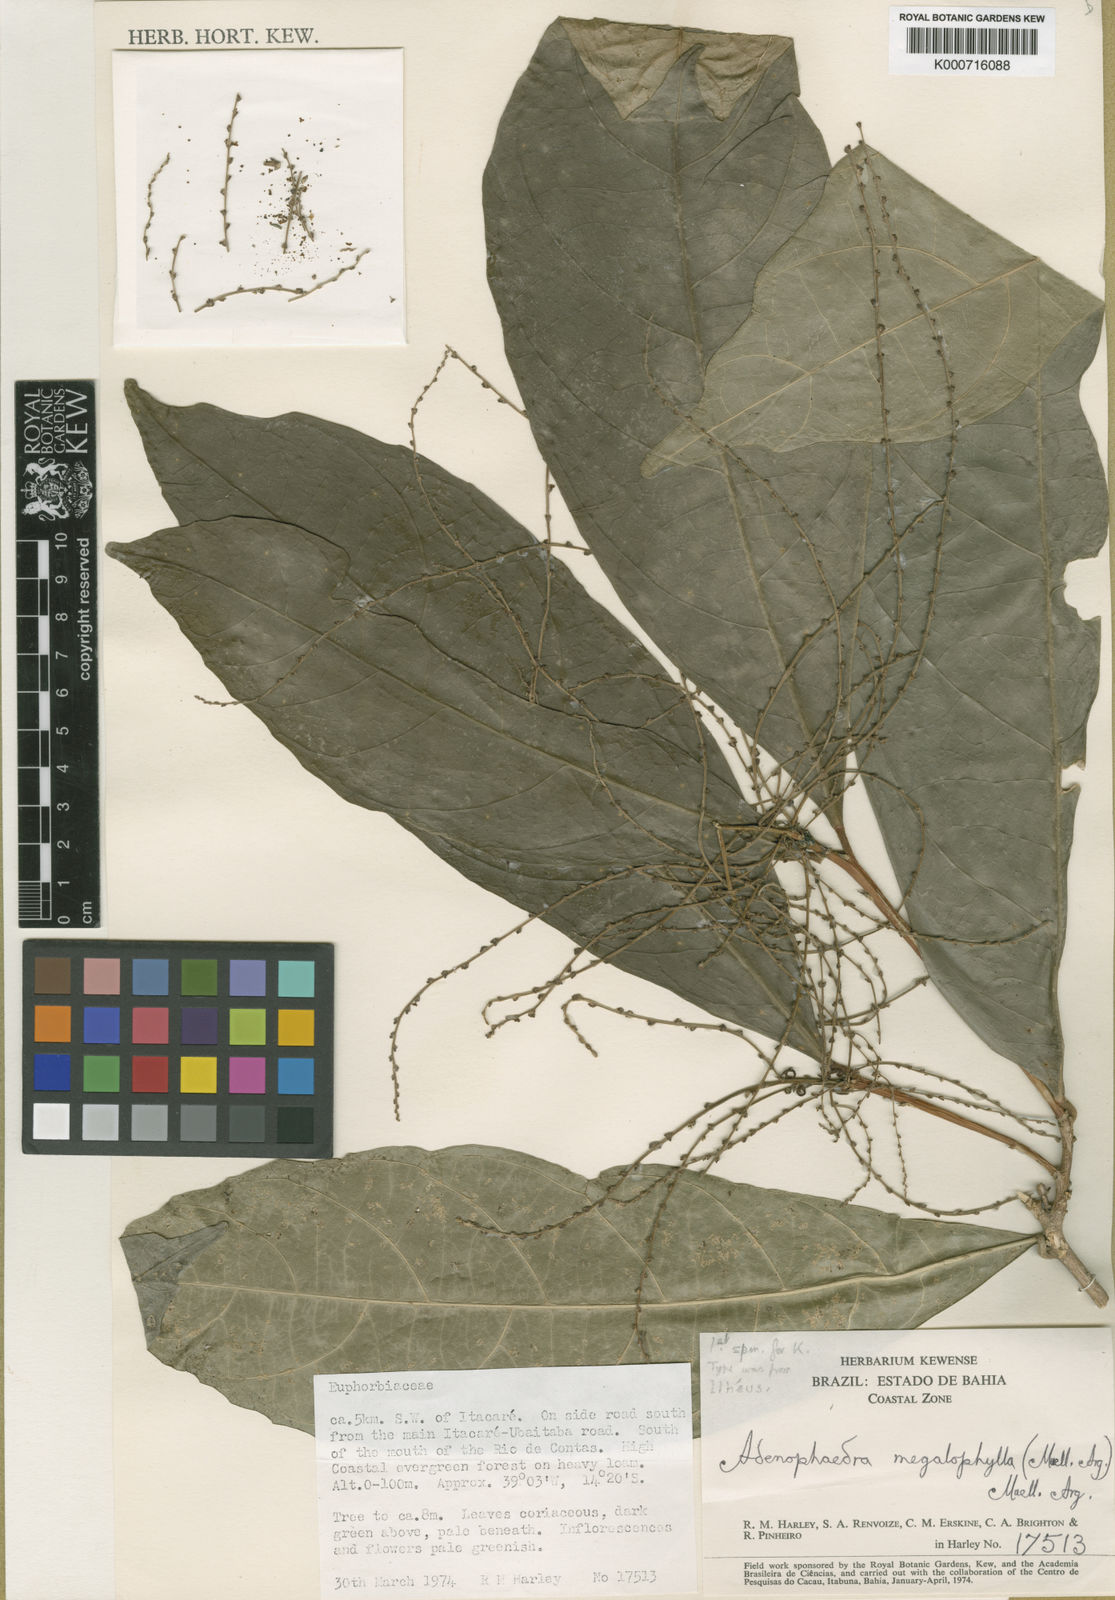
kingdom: Plantae
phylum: Tracheophyta
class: Magnoliopsida
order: Malpighiales
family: Euphorbiaceae
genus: Adenophaedra
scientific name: Adenophaedra
